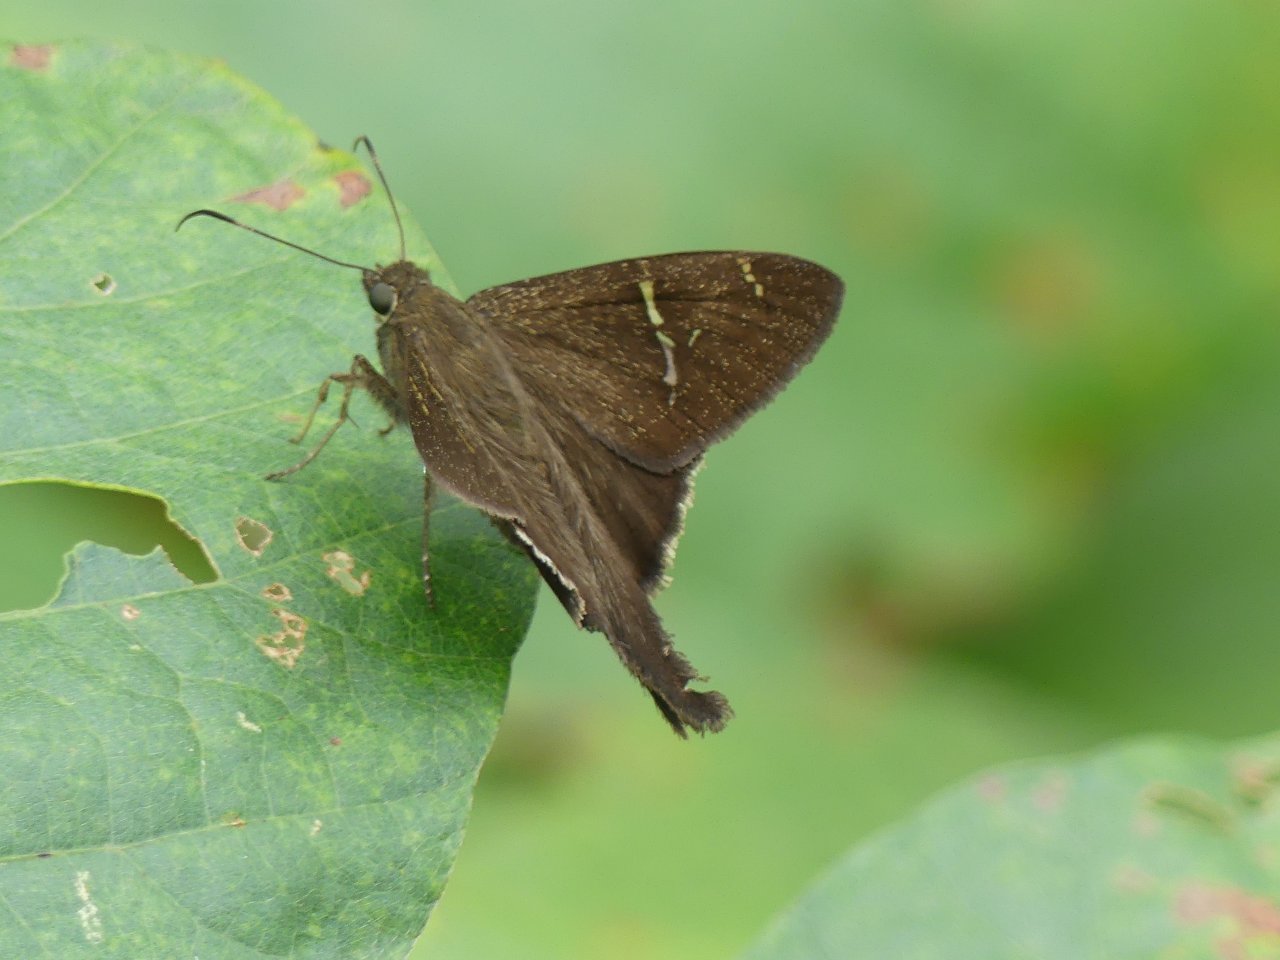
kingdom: Animalia
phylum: Arthropoda
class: Insecta
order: Lepidoptera
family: Hesperiidae
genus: Urbanus
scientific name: Urbanus teleus
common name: Teleus Longtail
